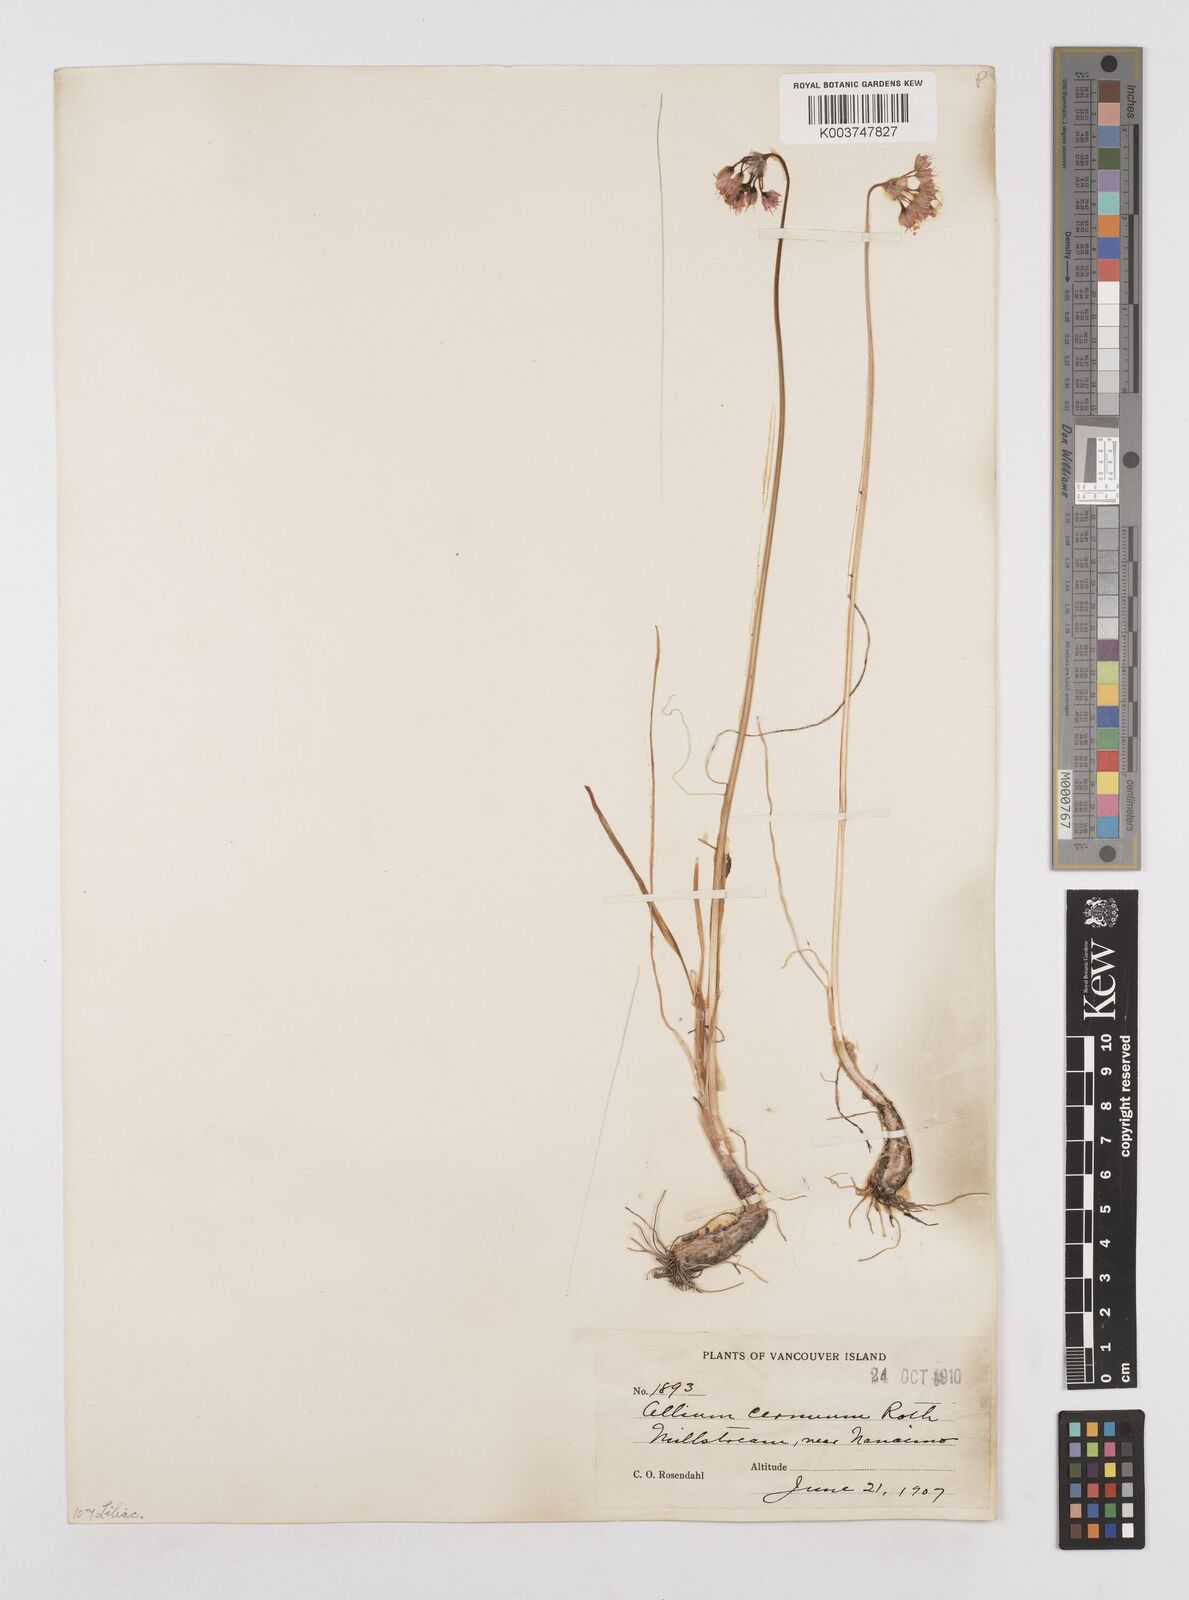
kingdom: Plantae
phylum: Tracheophyta
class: Liliopsida
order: Asparagales
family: Amaryllidaceae
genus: Allium
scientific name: Allium cernuum
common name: Nodding onion
